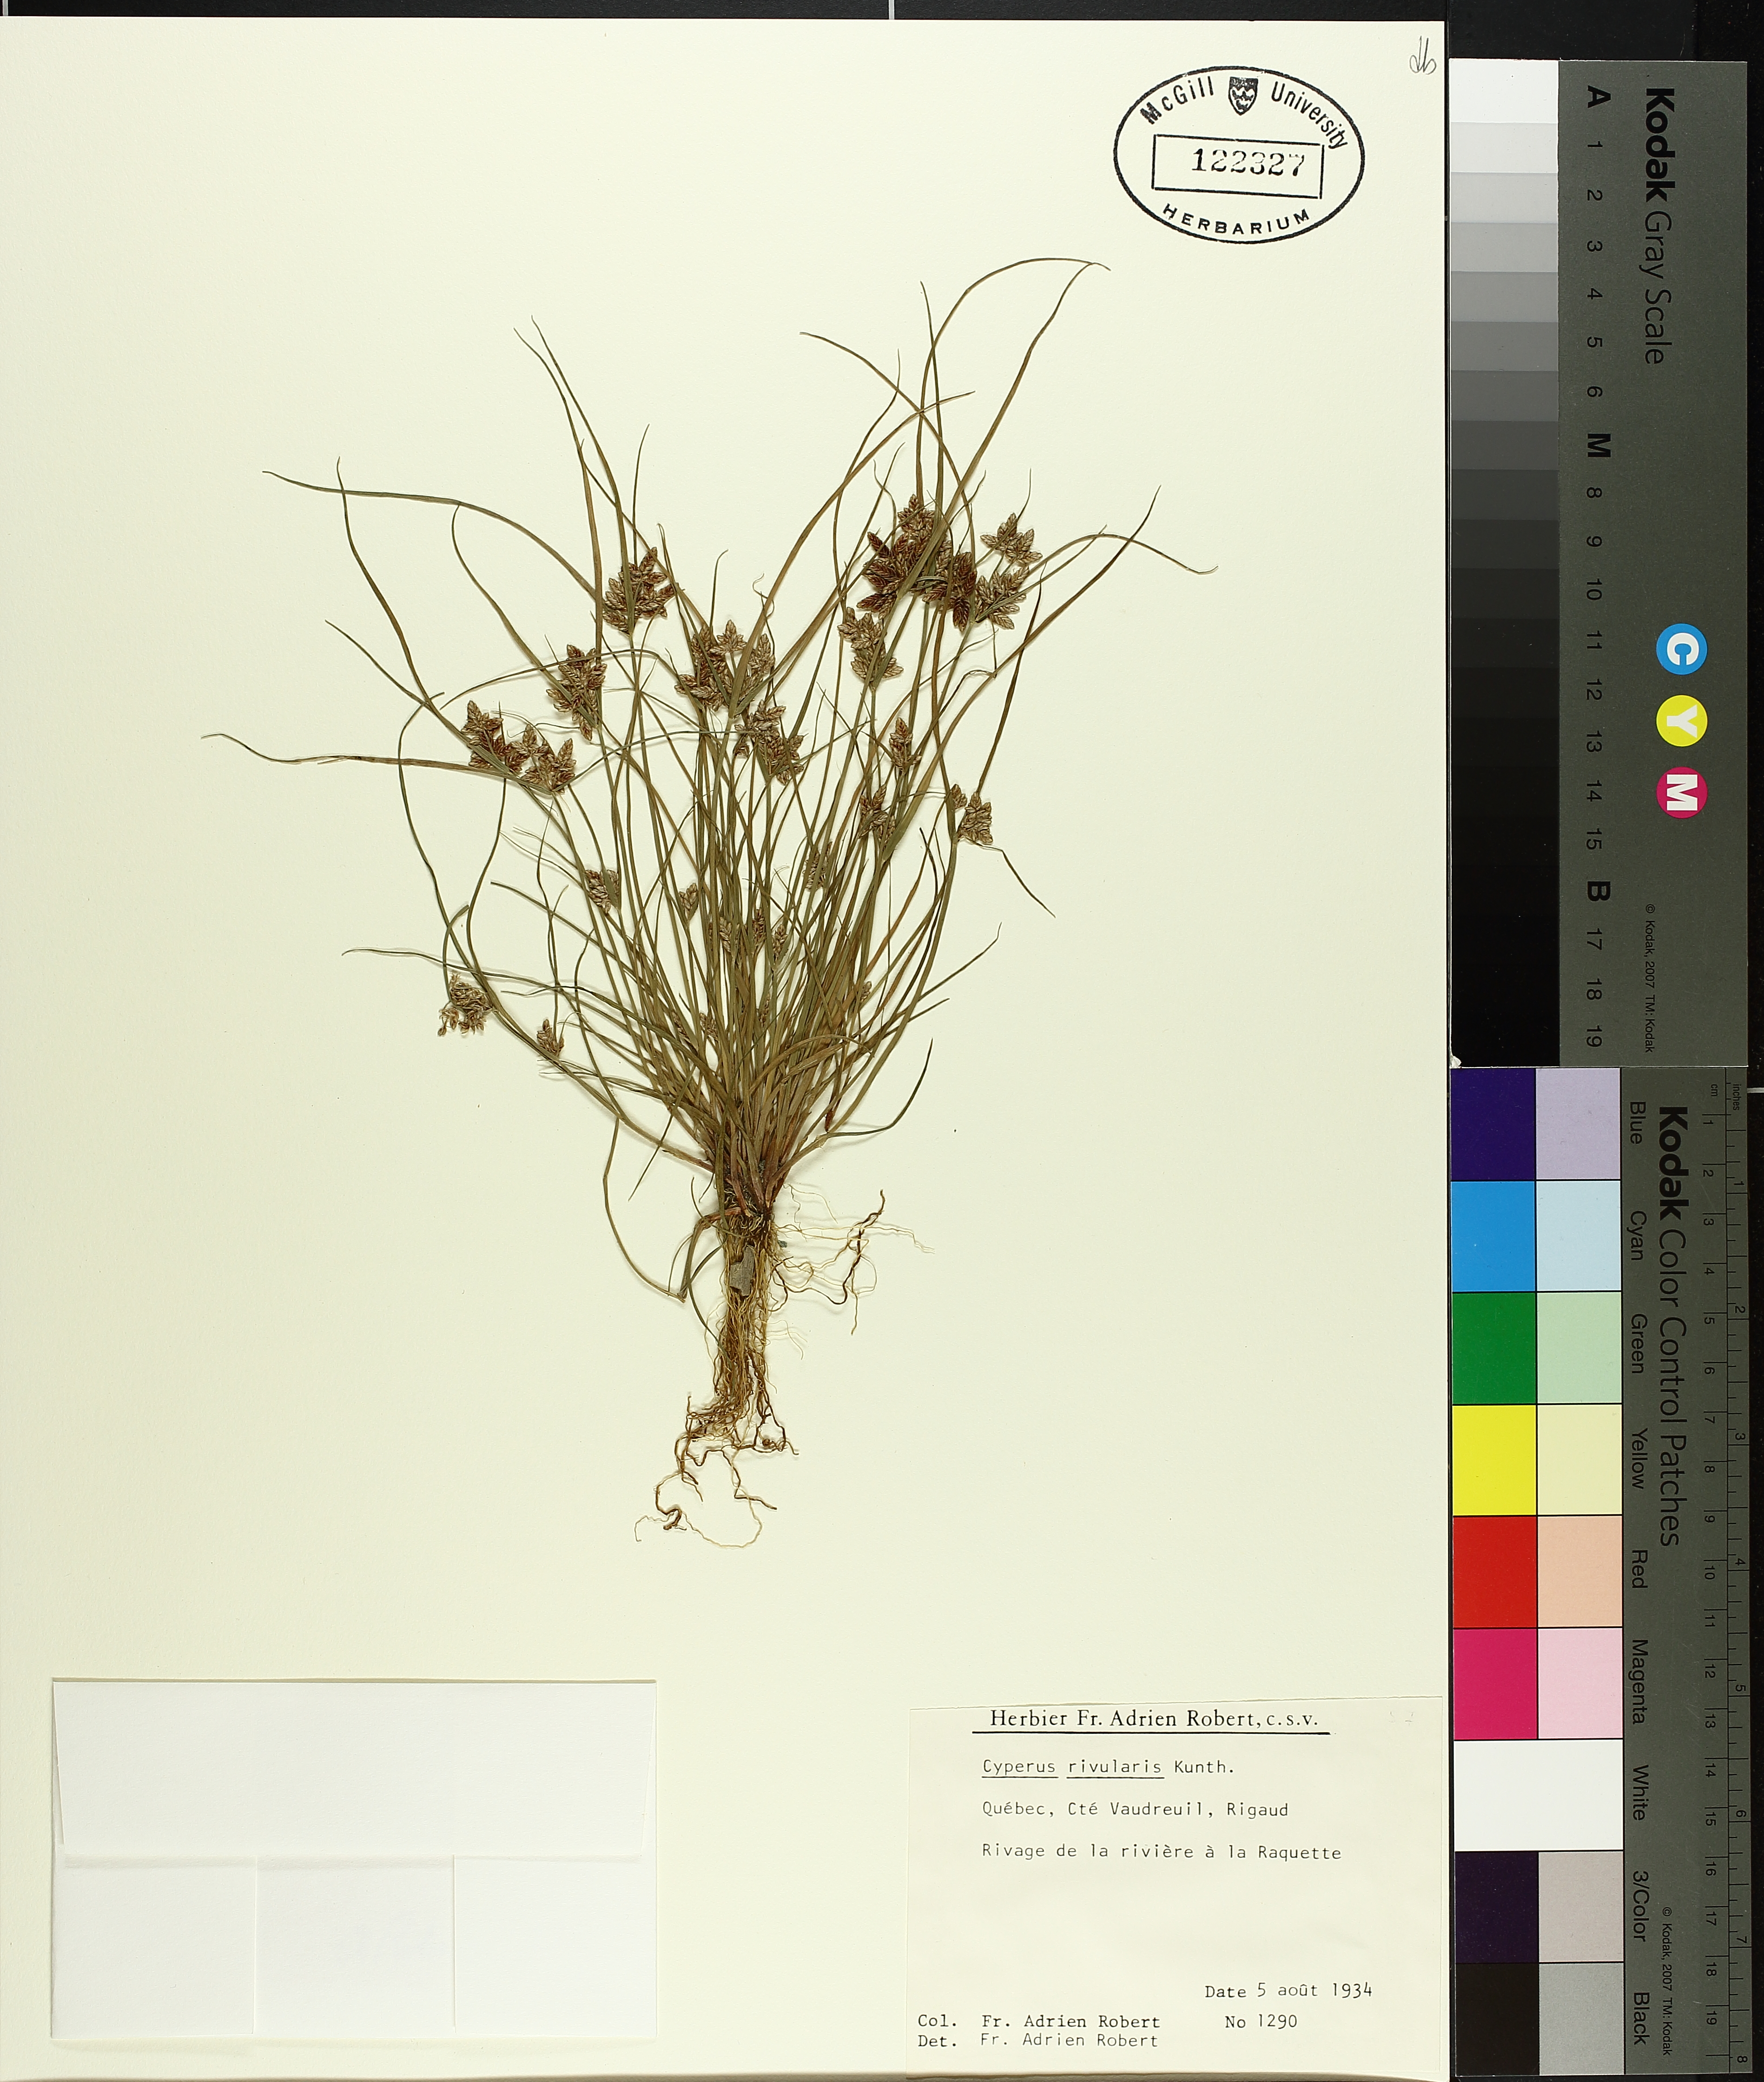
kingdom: Plantae
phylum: Tracheophyta
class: Liliopsida
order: Poales
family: Cyperaceae
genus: Cyperus
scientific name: Cyperus bipartitus
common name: Brook flatsedge
